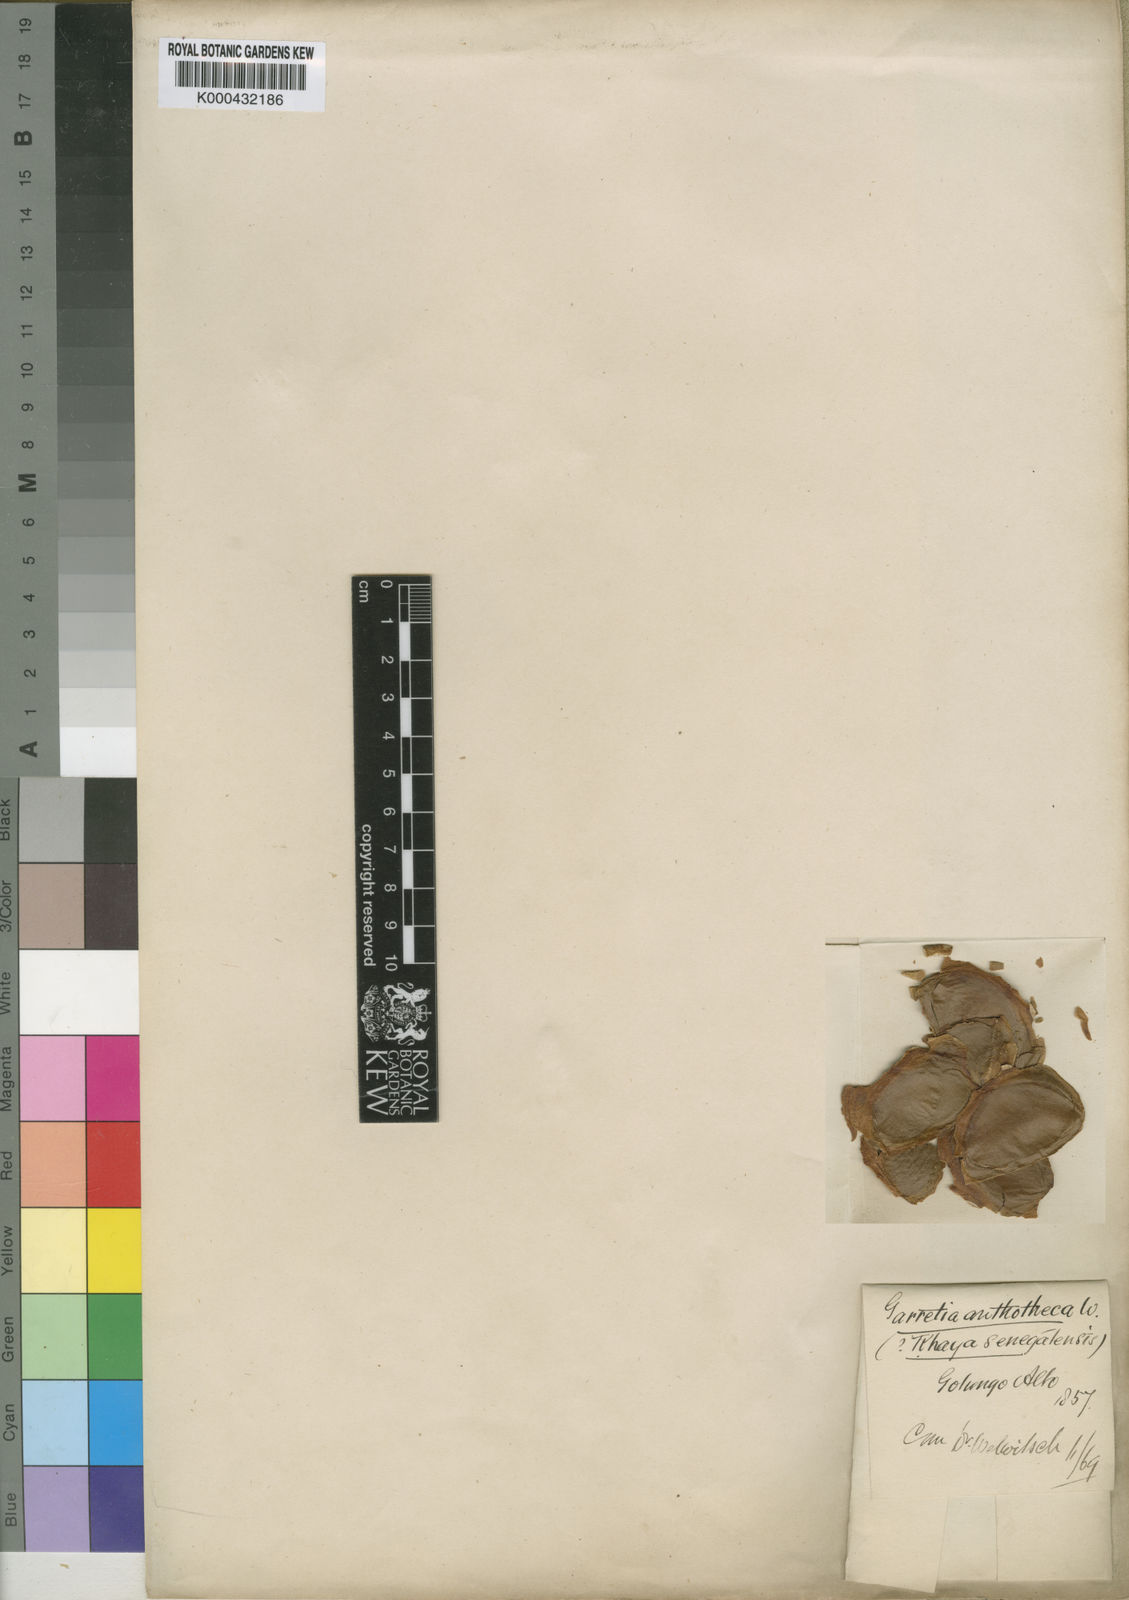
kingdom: Plantae
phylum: Tracheophyta
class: Magnoliopsida
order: Sapindales
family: Meliaceae
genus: Khaya
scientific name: Khaya anthotheca
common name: Nyasaland mahogany
